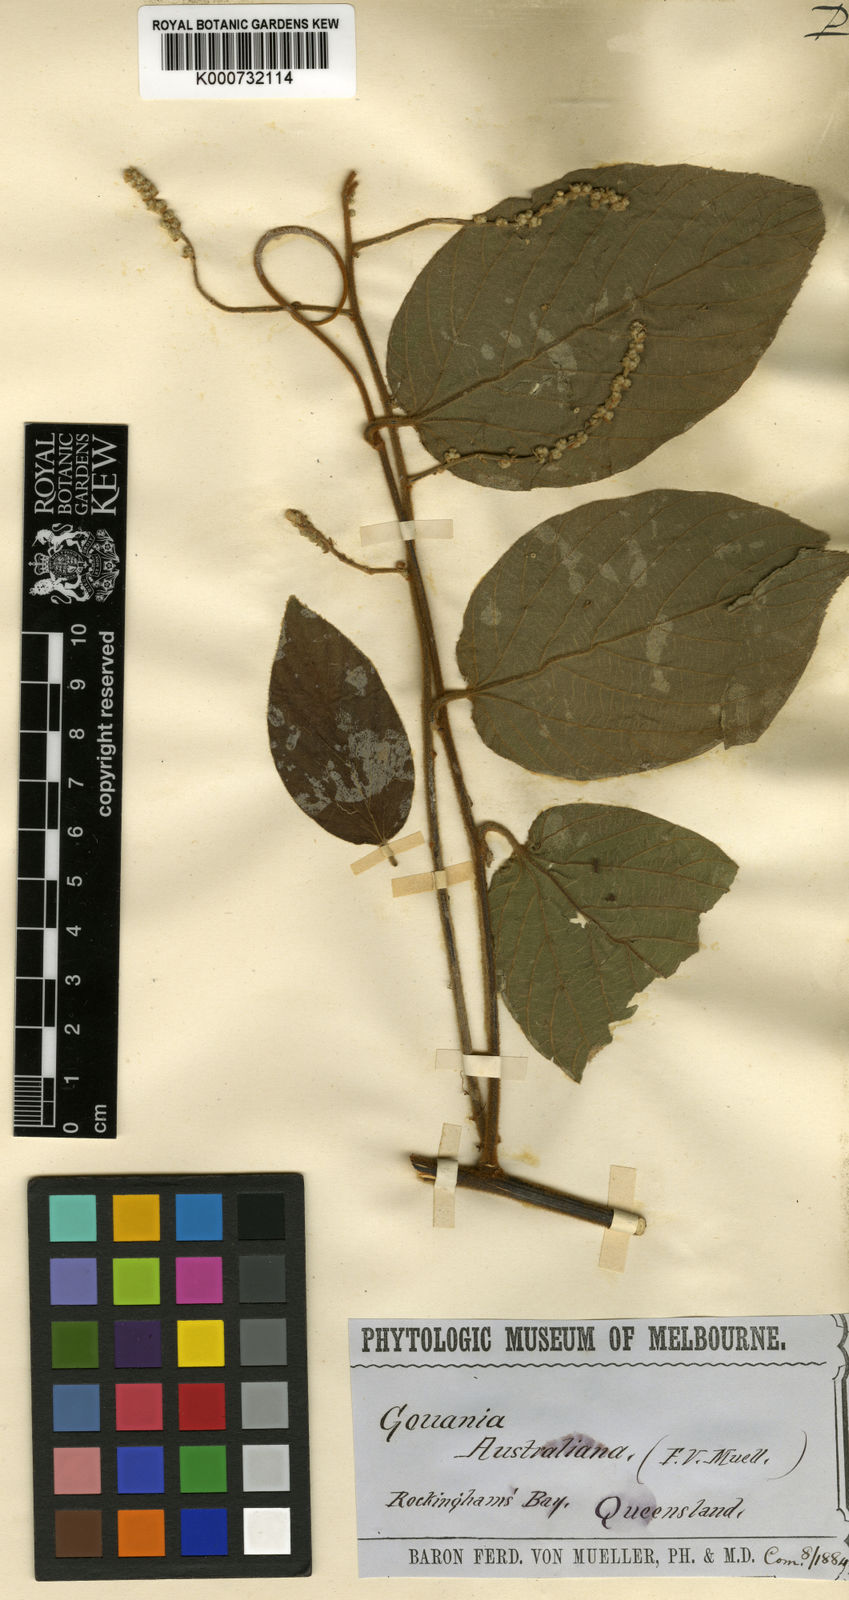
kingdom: Plantae
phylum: Tracheophyta
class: Magnoliopsida
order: Rosales
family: Rhamnaceae
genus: Gouania
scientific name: Gouania australiana
